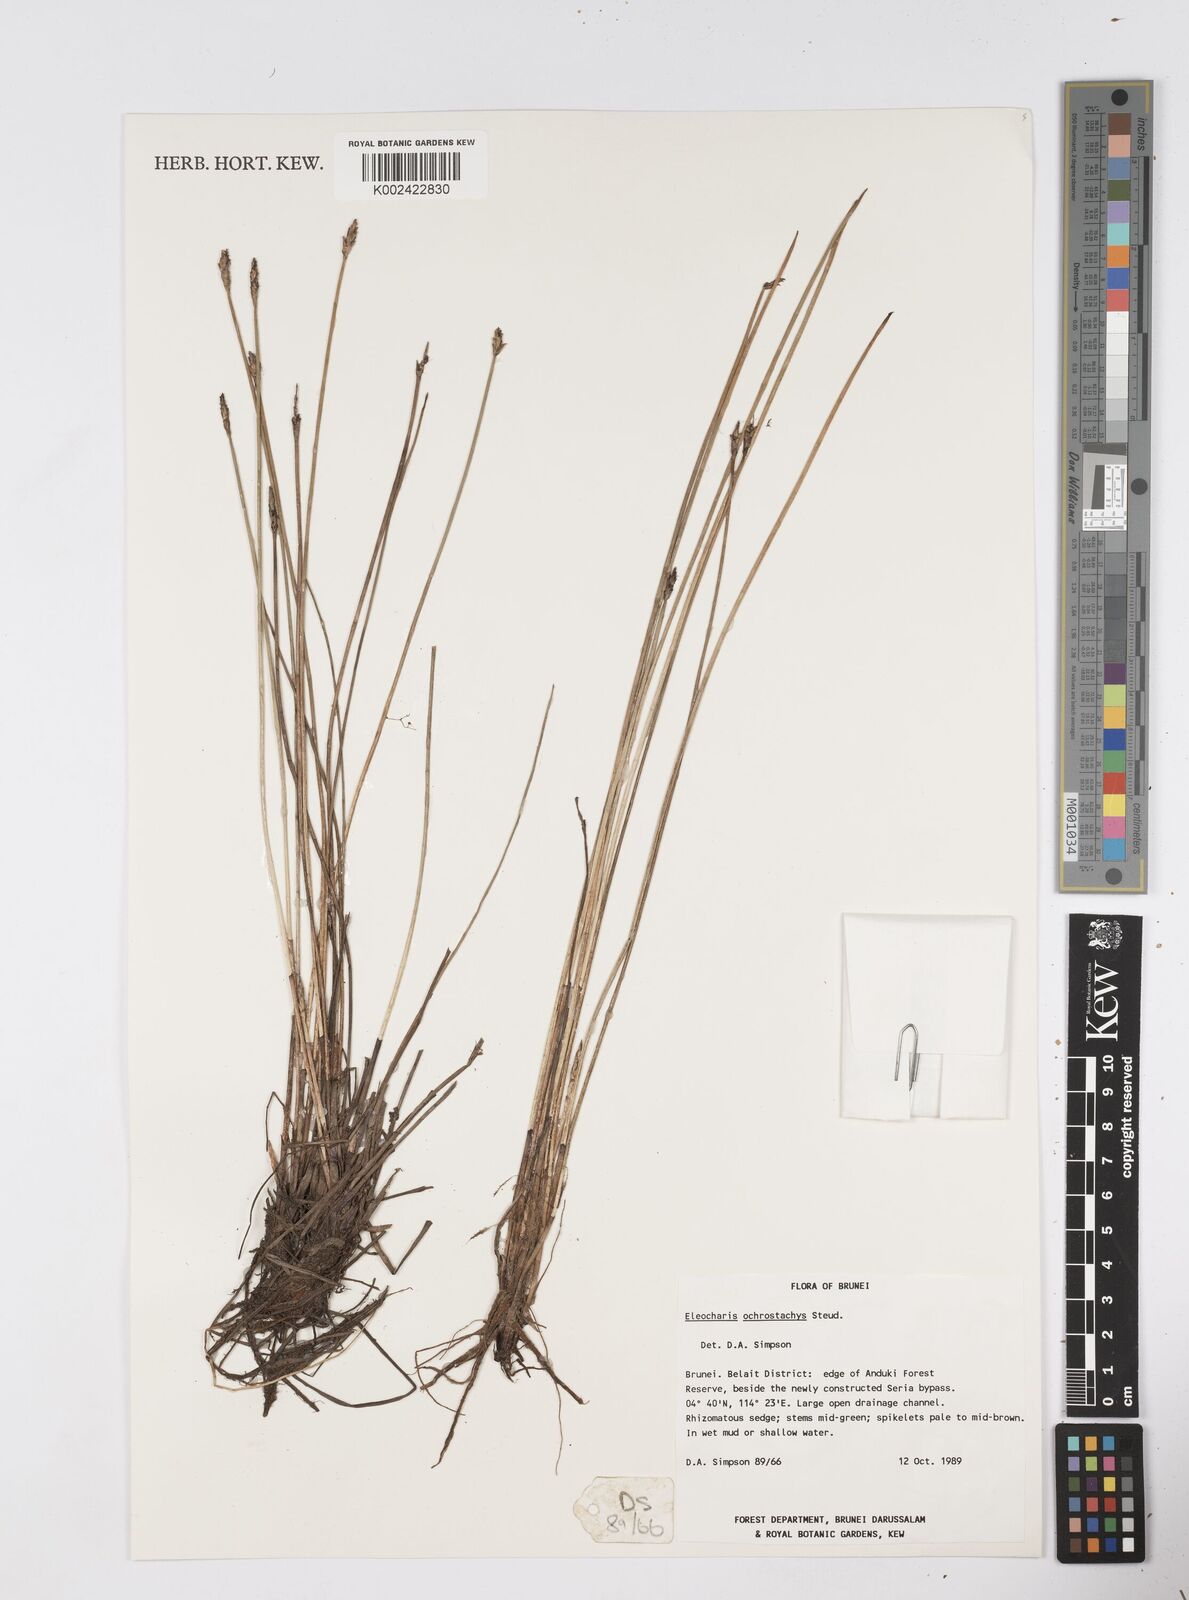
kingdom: Plantae
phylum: Tracheophyta
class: Liliopsida
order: Poales
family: Cyperaceae
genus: Eleocharis
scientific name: Eleocharis ochrostachys
